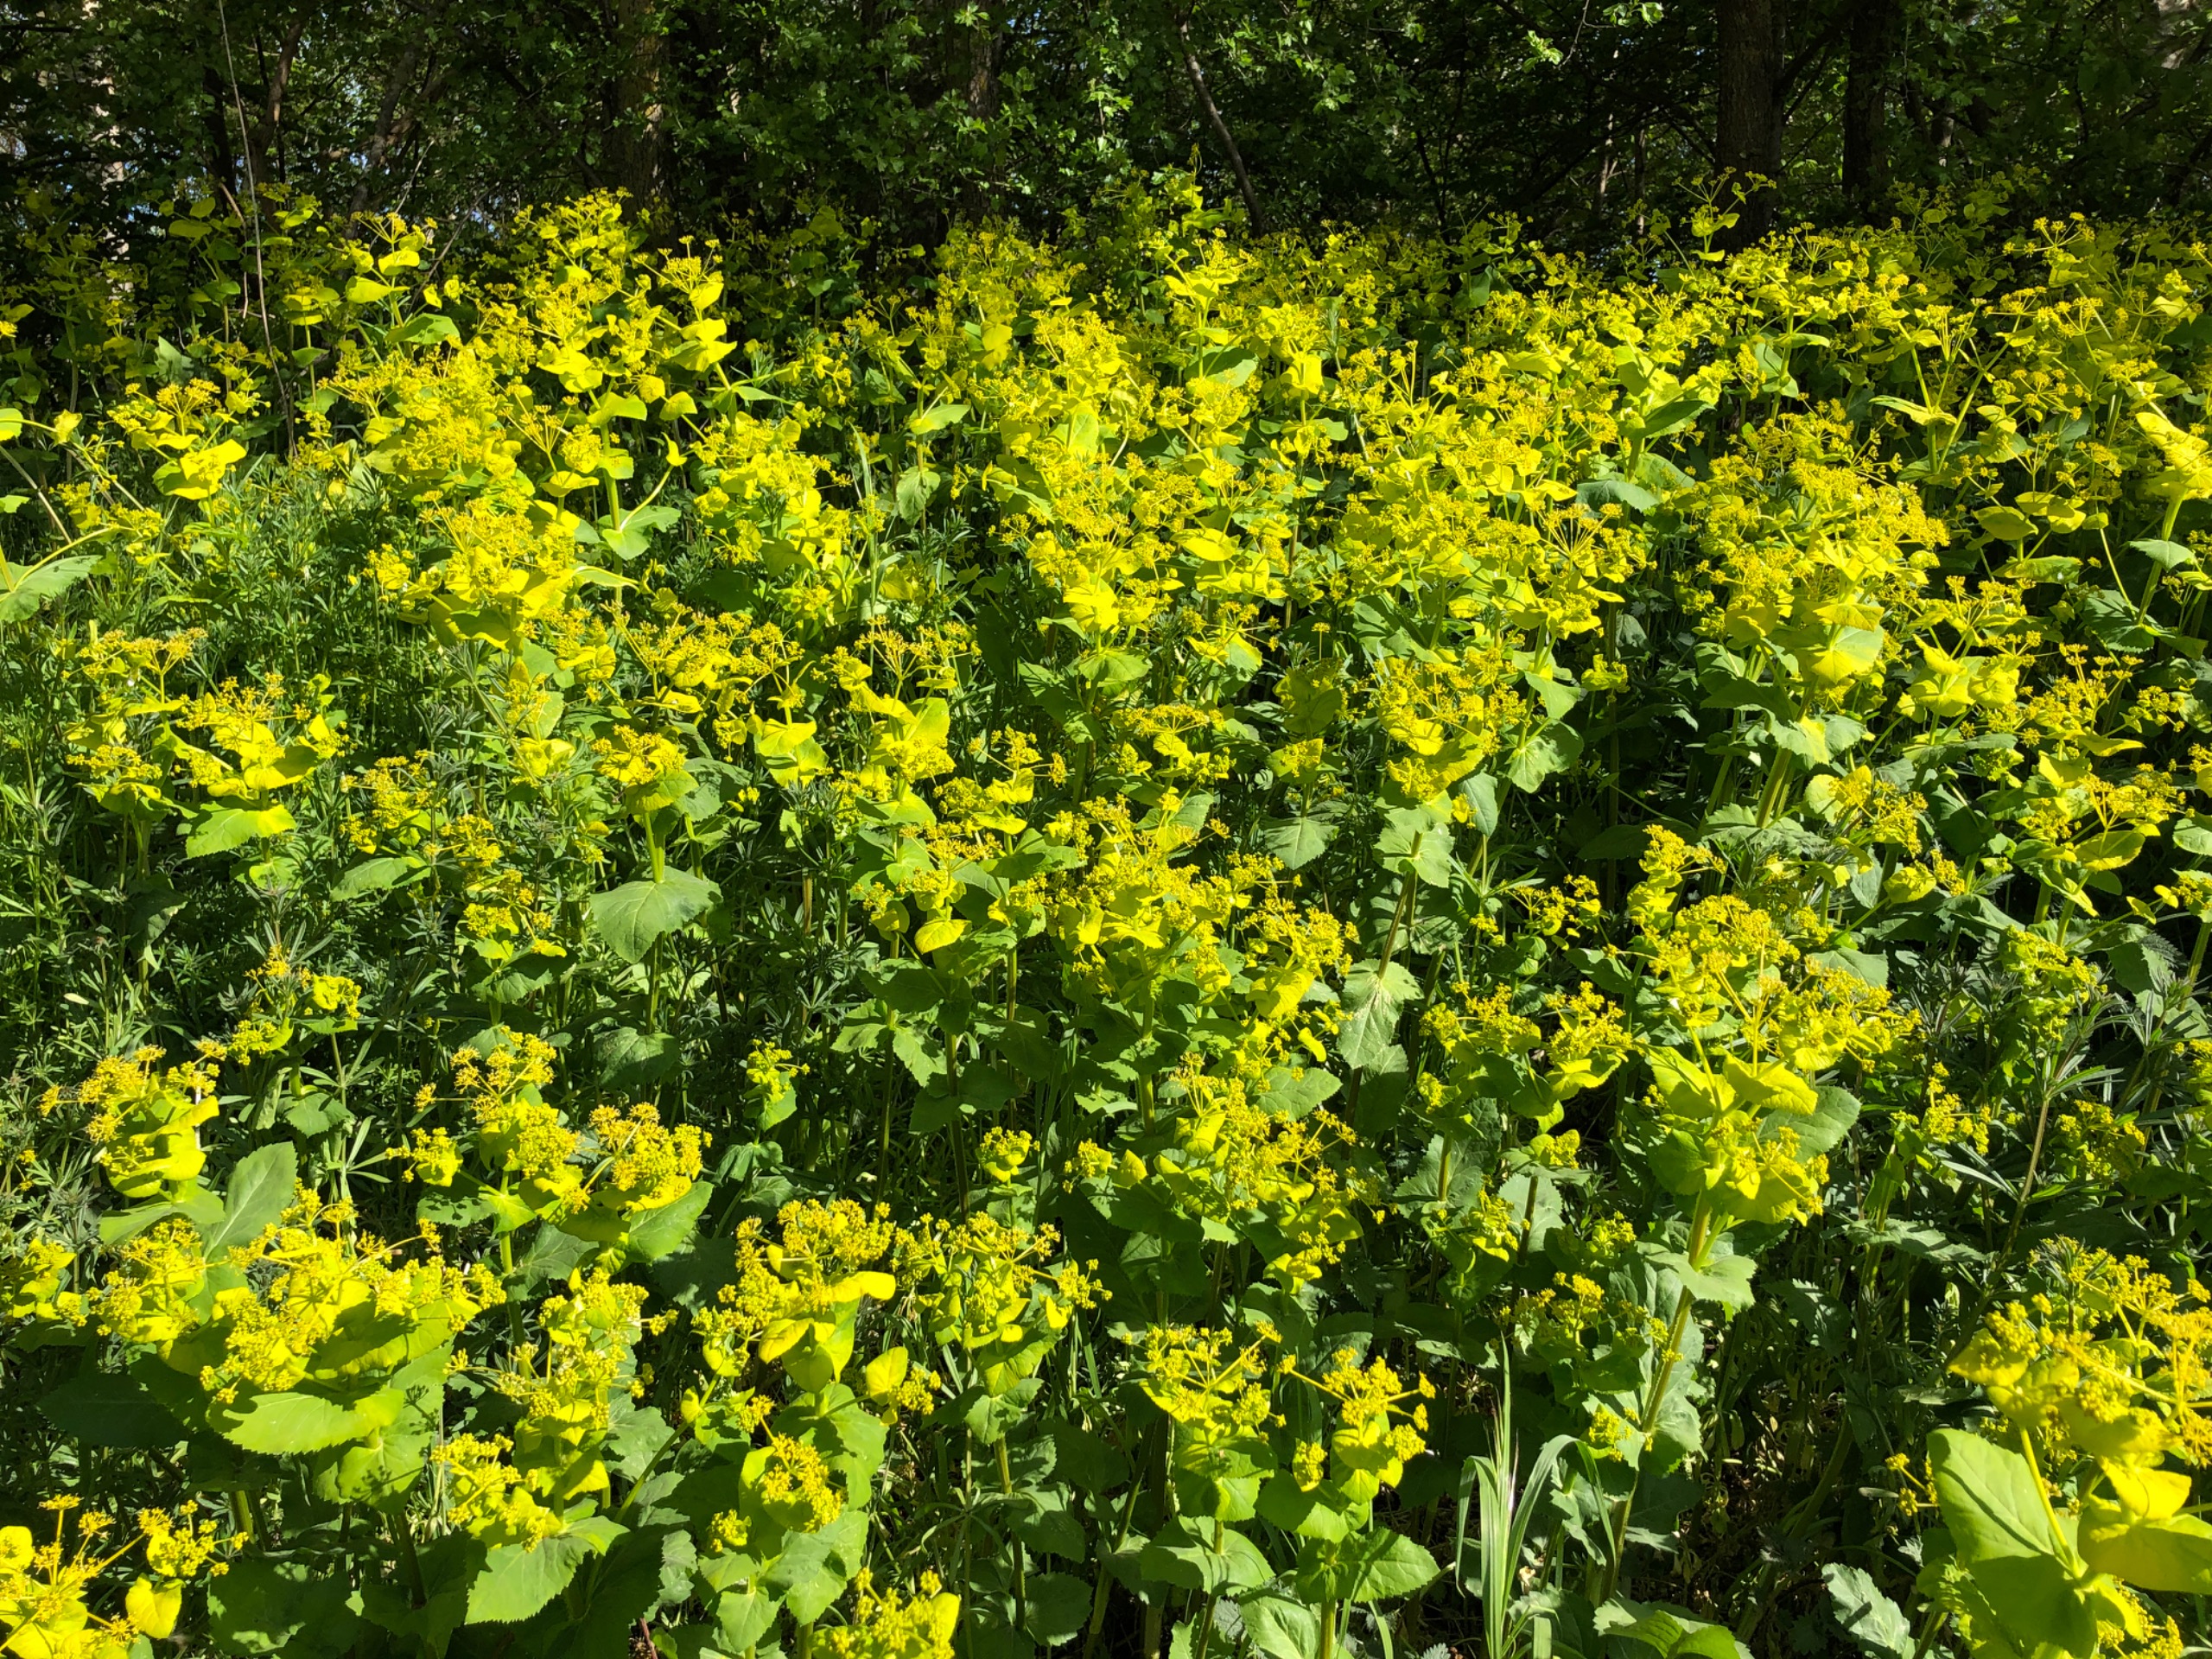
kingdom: Plantae
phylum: Tracheophyta
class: Magnoliopsida
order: Apiales
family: Apiaceae
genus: Smyrnium
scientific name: Smyrnium perfoliatum
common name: Lundgylden
